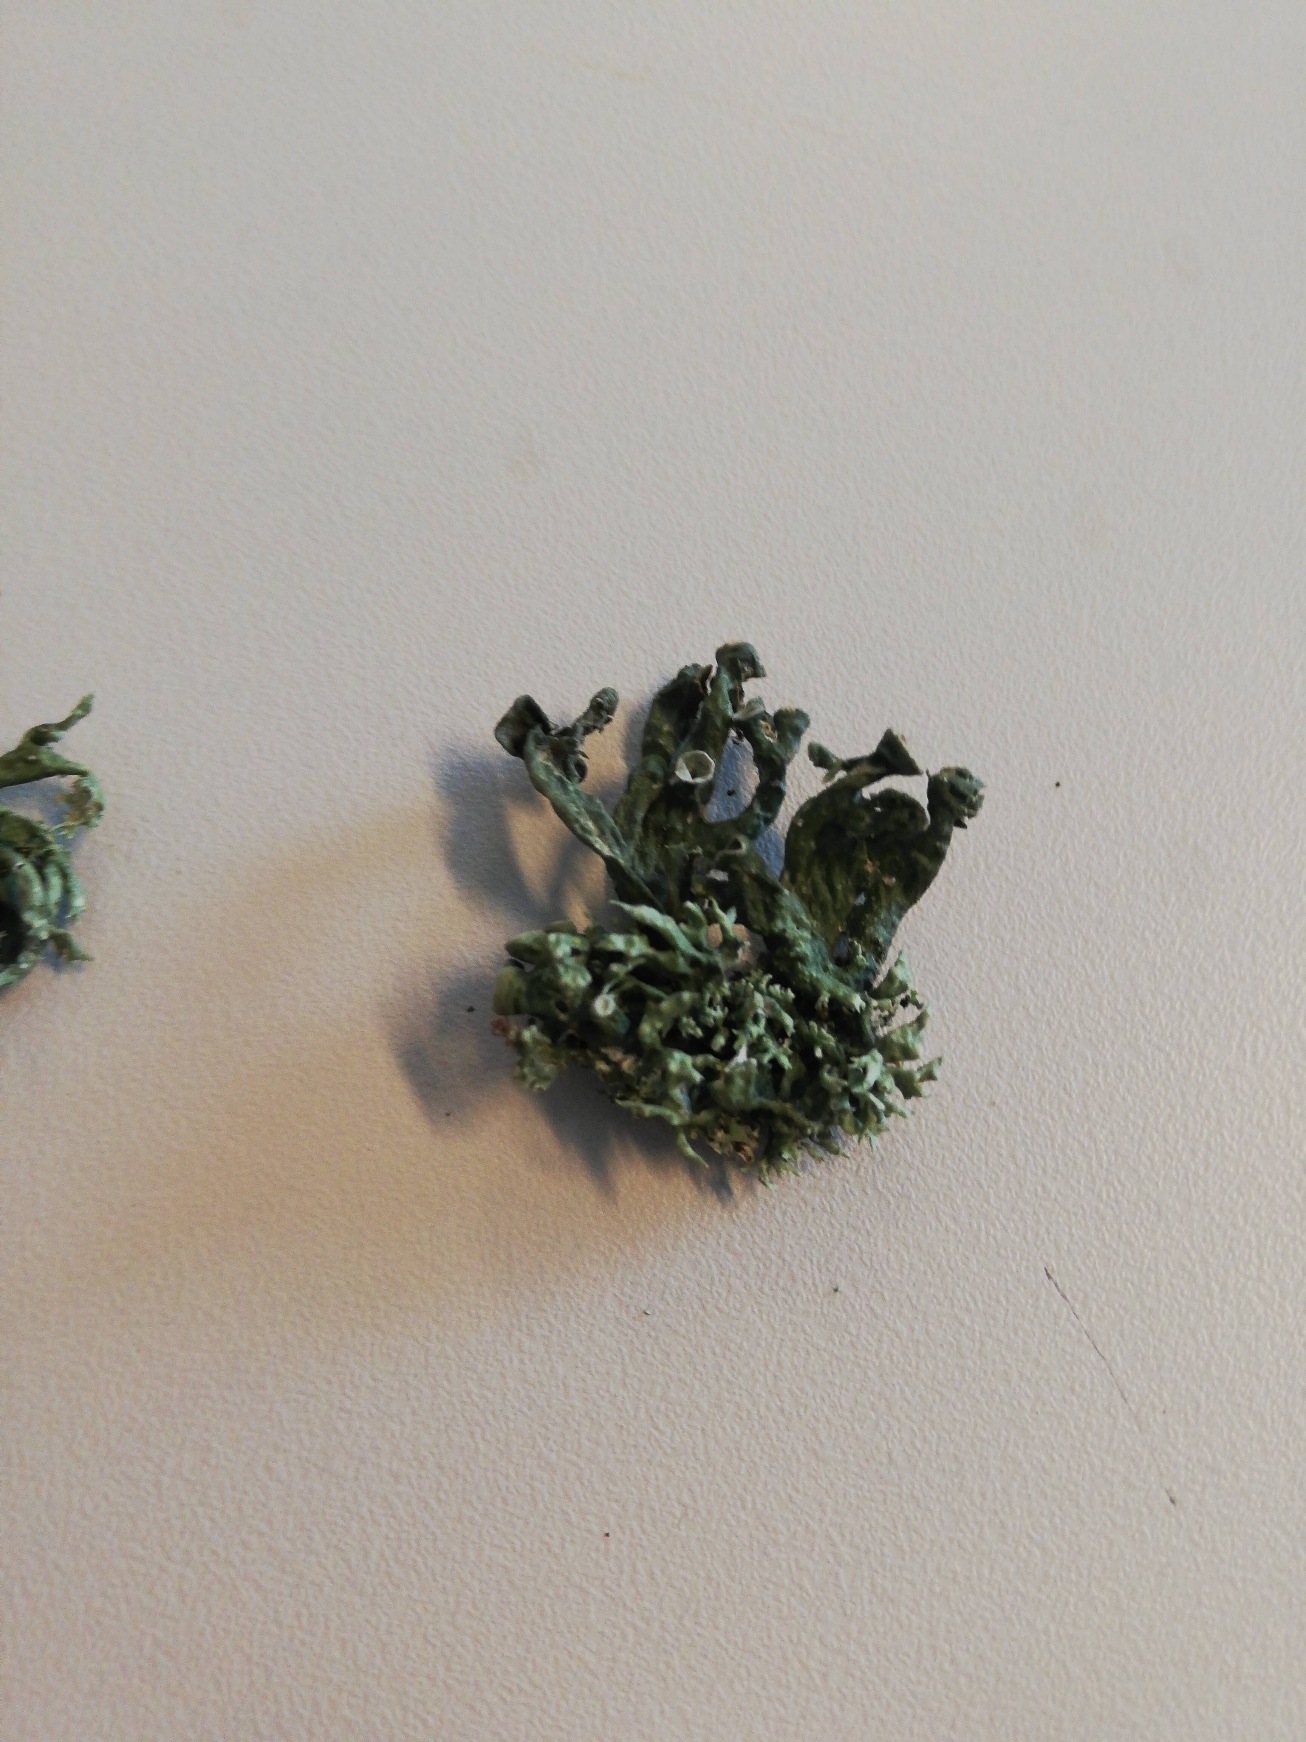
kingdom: Fungi
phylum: Ascomycota
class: Lecanoromycetes
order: Lecanorales
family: Ramalinaceae
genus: Ramalina
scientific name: Ramalina fastigiata
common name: Tue-grenlav
